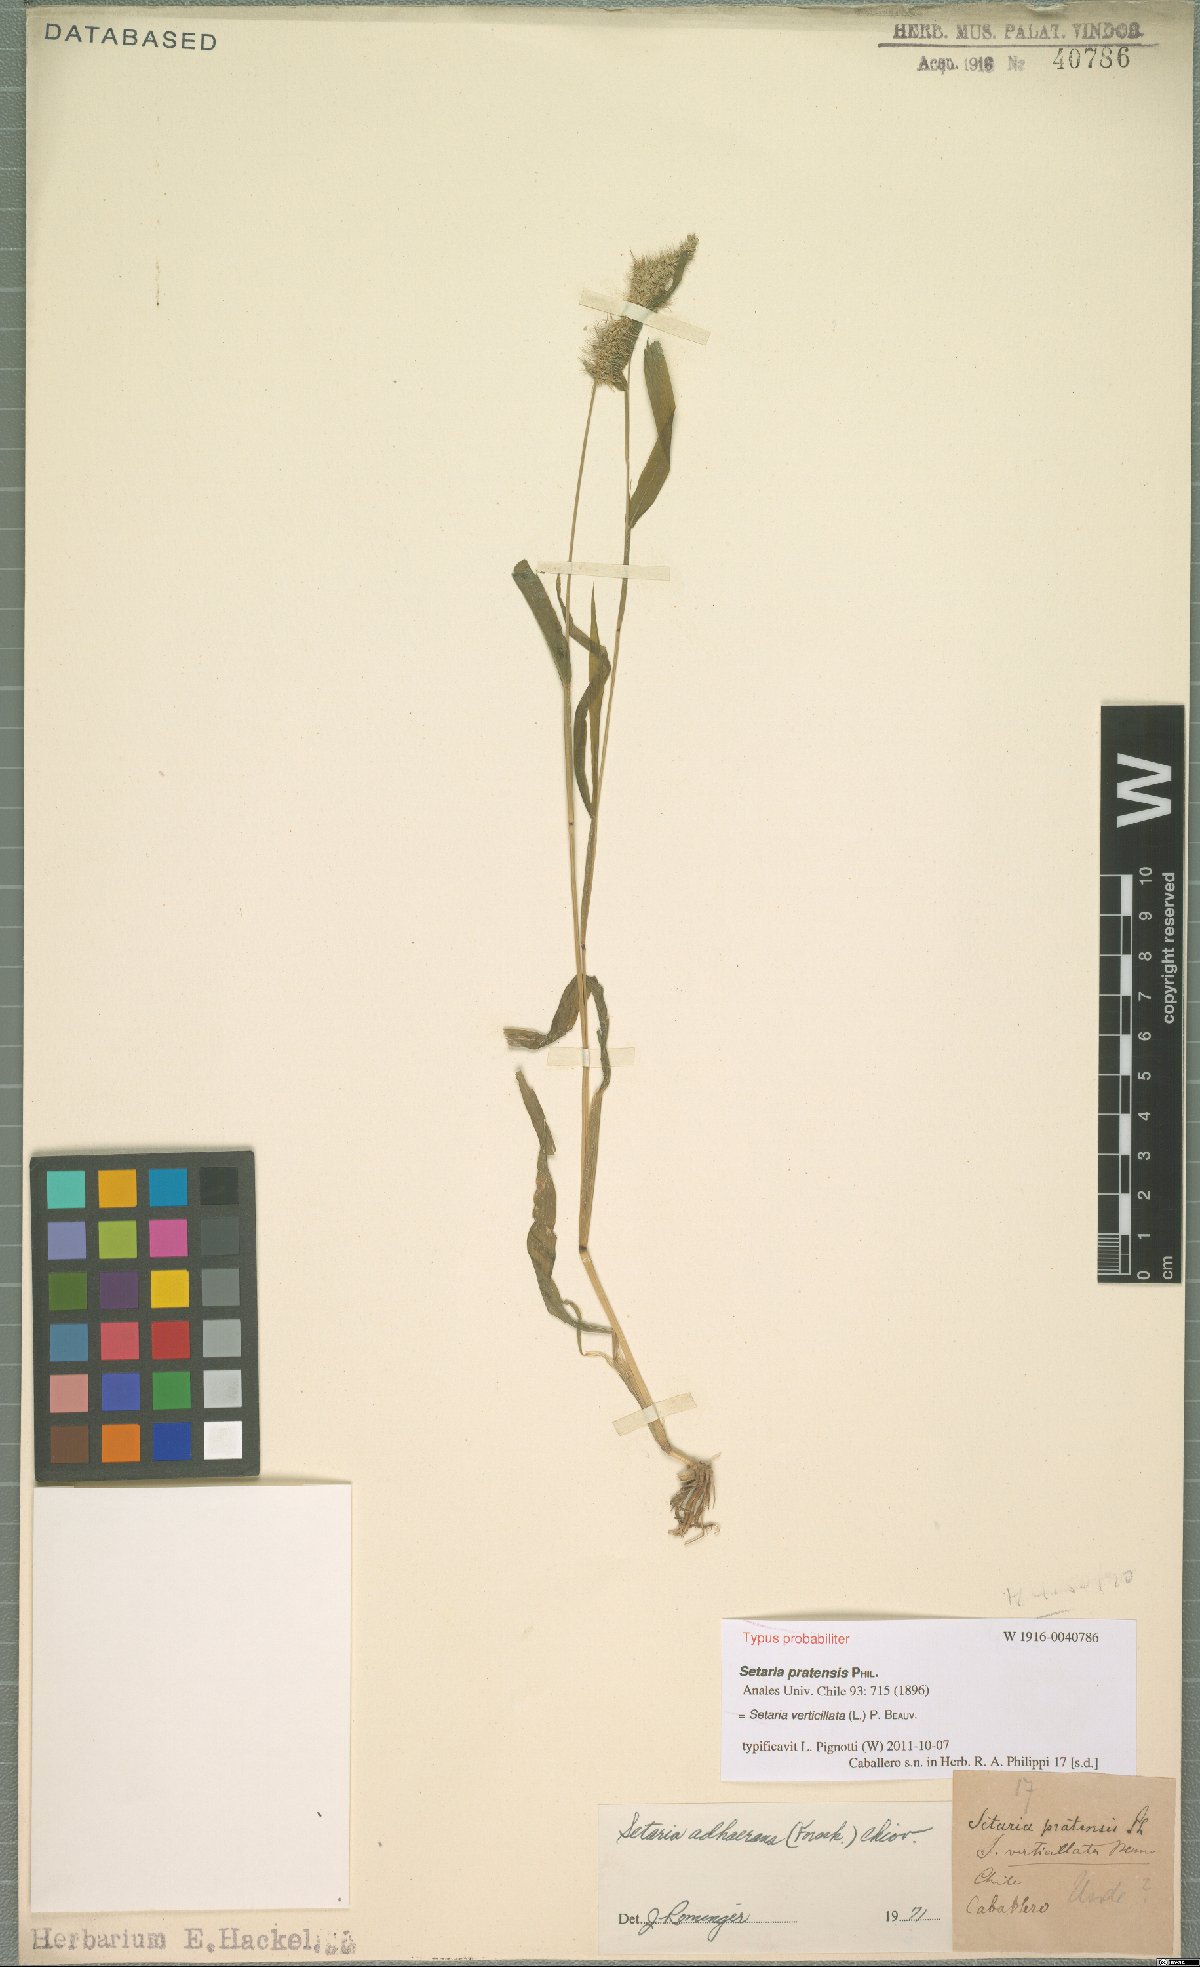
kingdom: Plantae
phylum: Tracheophyta
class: Liliopsida
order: Poales
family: Poaceae
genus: Setaria
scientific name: Setaria verticillata
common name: Hooked bristlegrass
